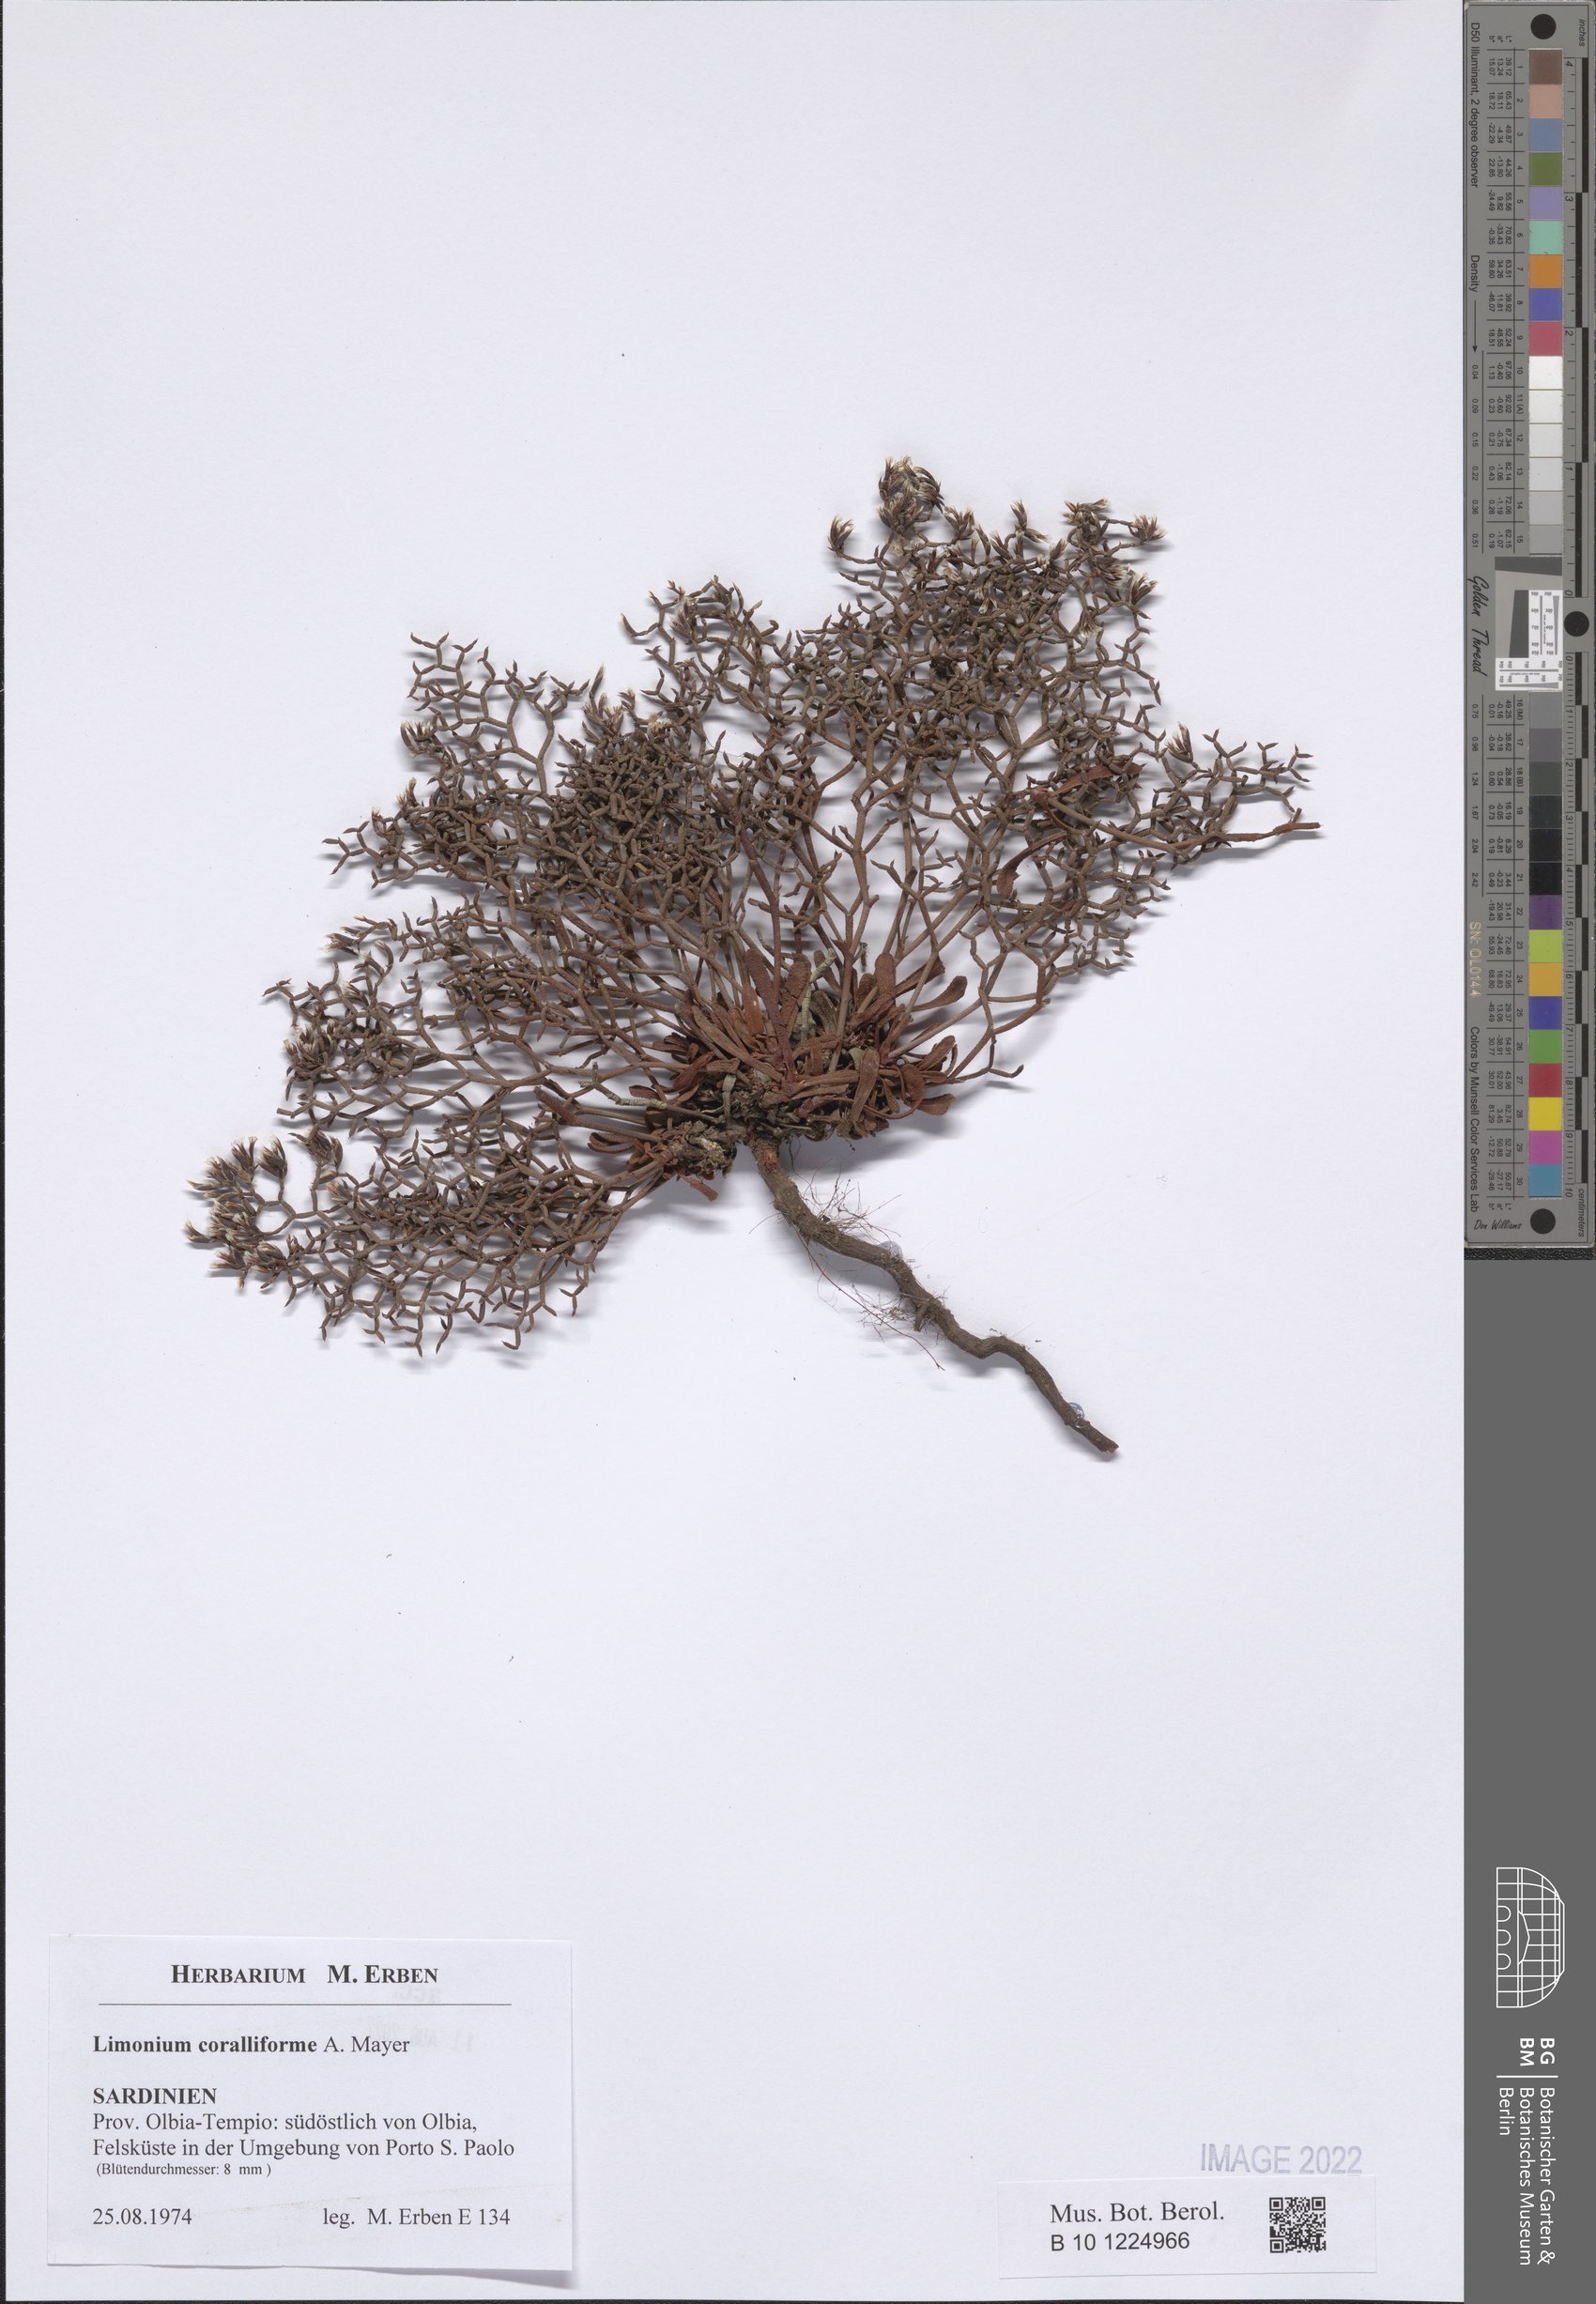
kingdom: Plantae
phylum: Tracheophyta
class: Magnoliopsida
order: Caryophyllales
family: Plumbaginaceae
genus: Limonium
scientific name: Limonium coralliforme
